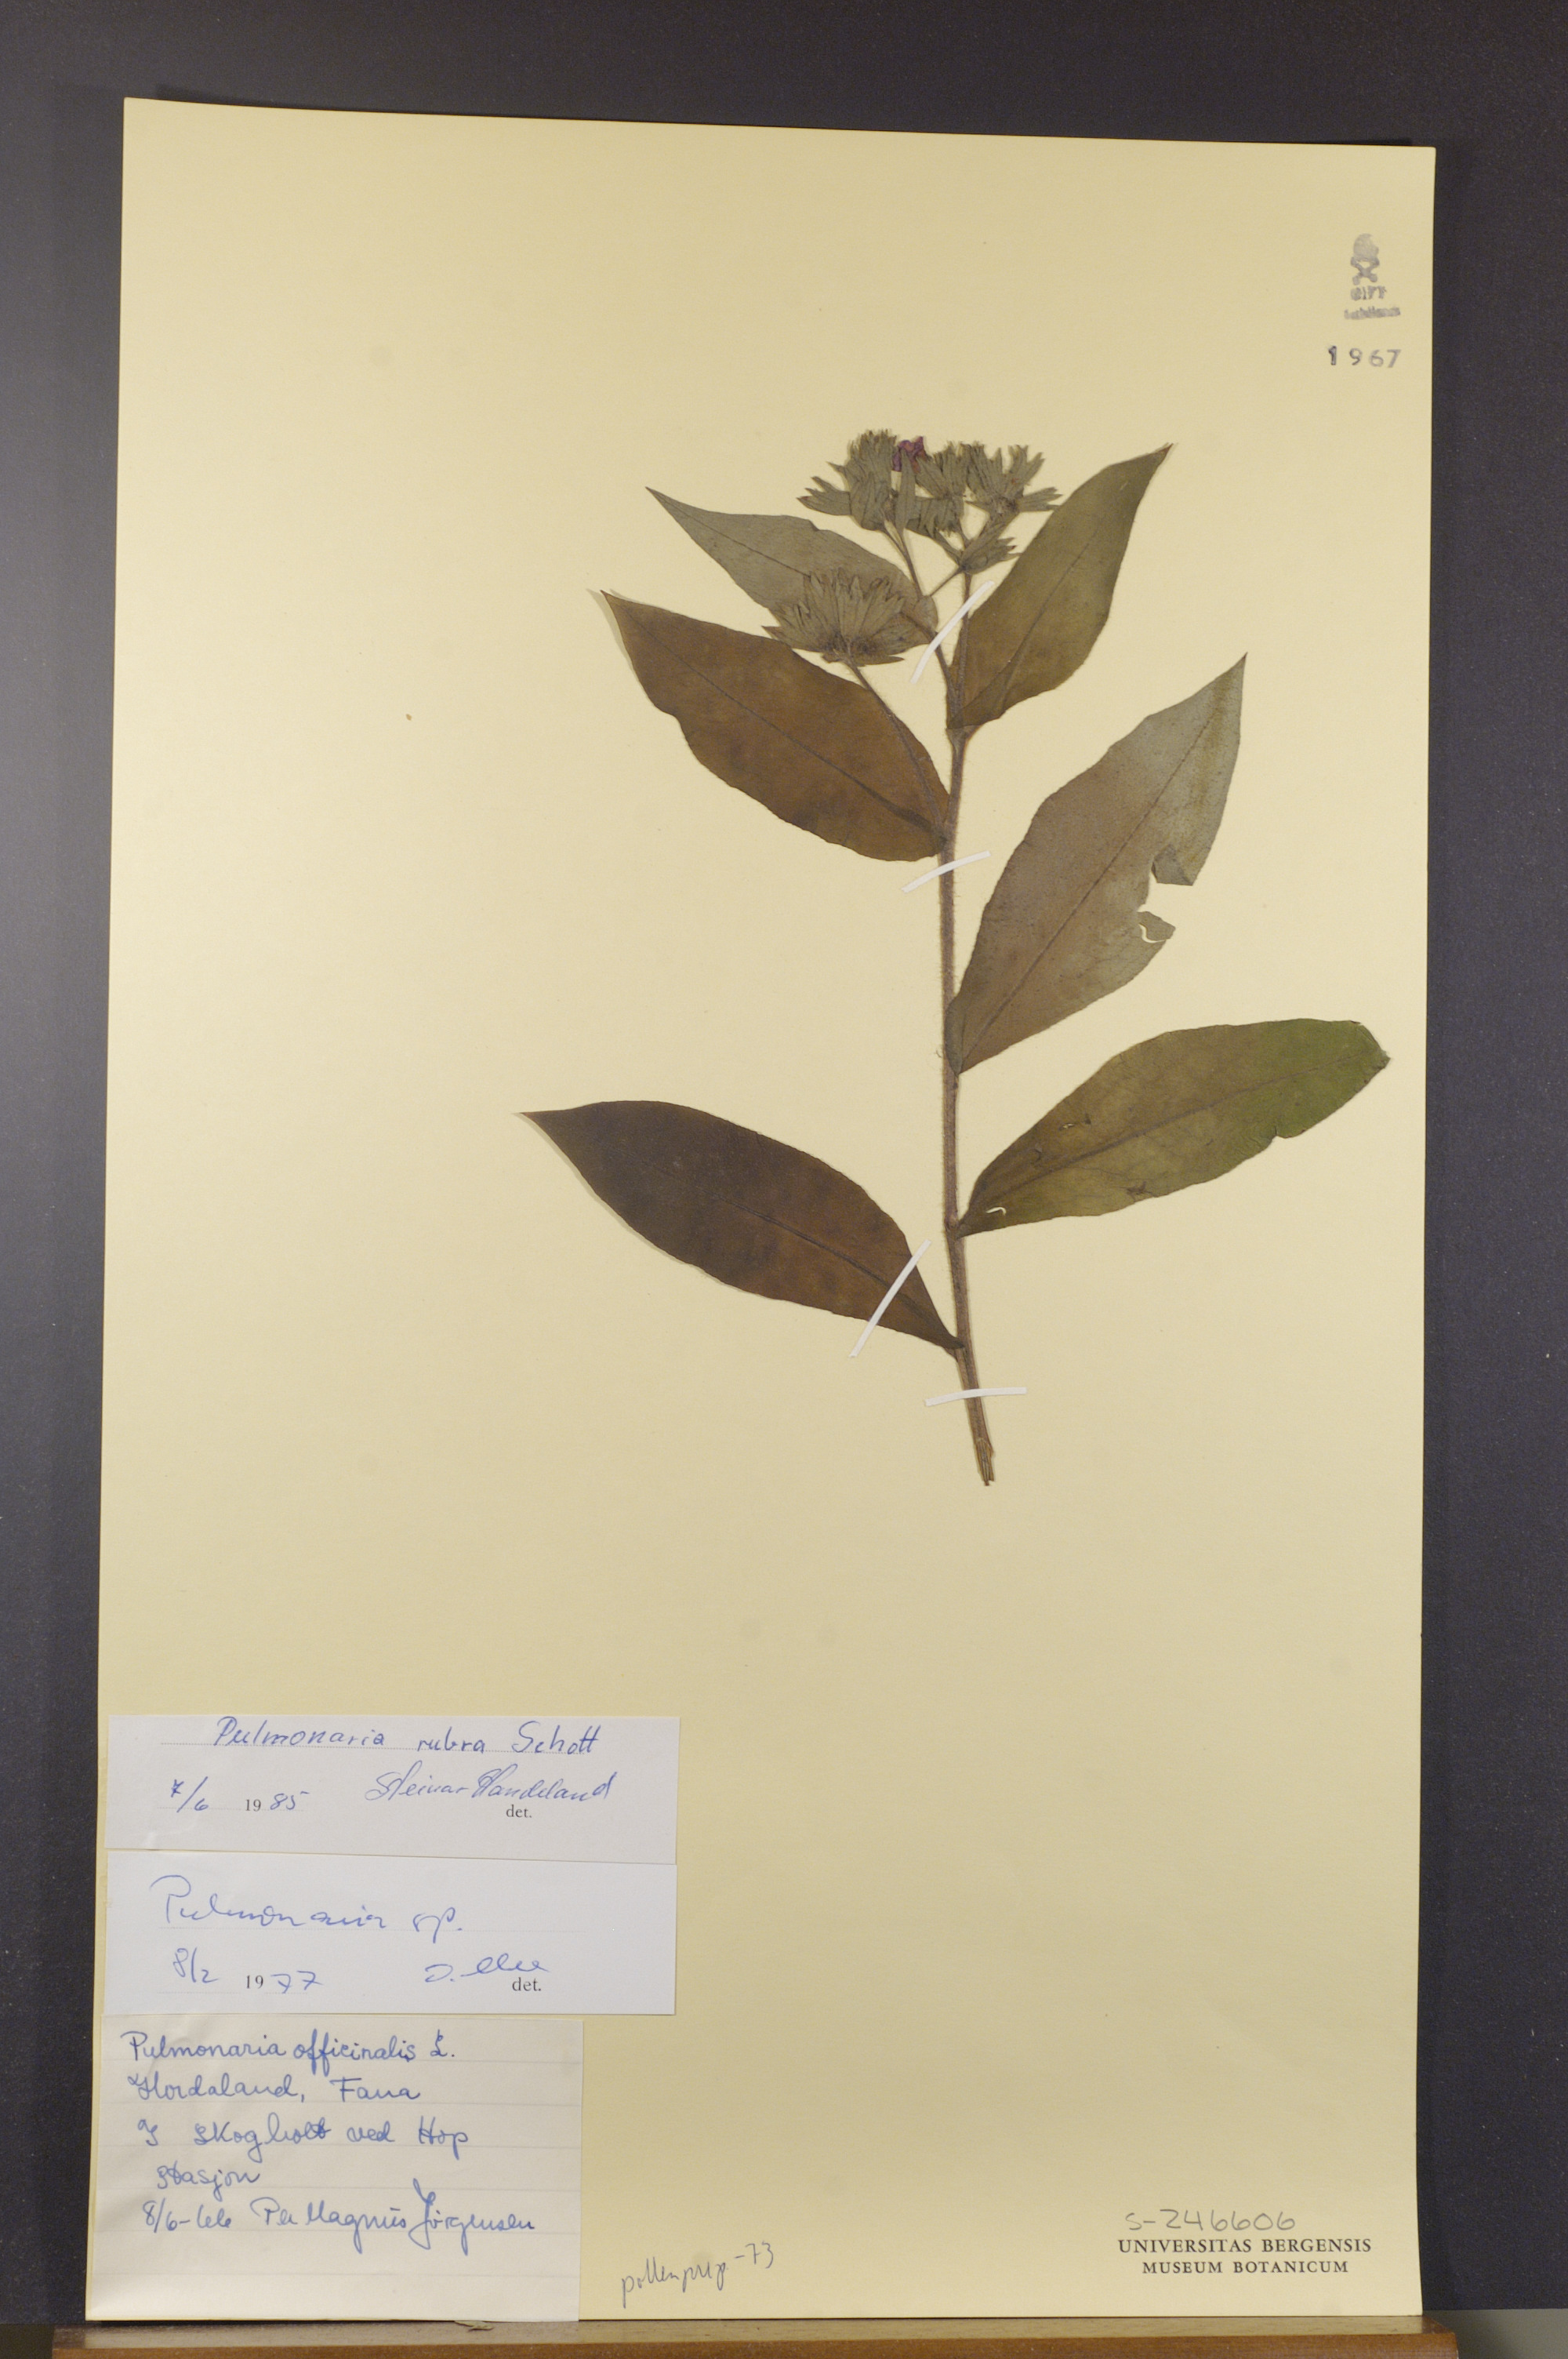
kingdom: Plantae
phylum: Tracheophyta
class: Magnoliopsida
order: Boraginales
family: Boraginaceae
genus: Pulmonaria
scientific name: Pulmonaria rubra
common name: Red lungwort
